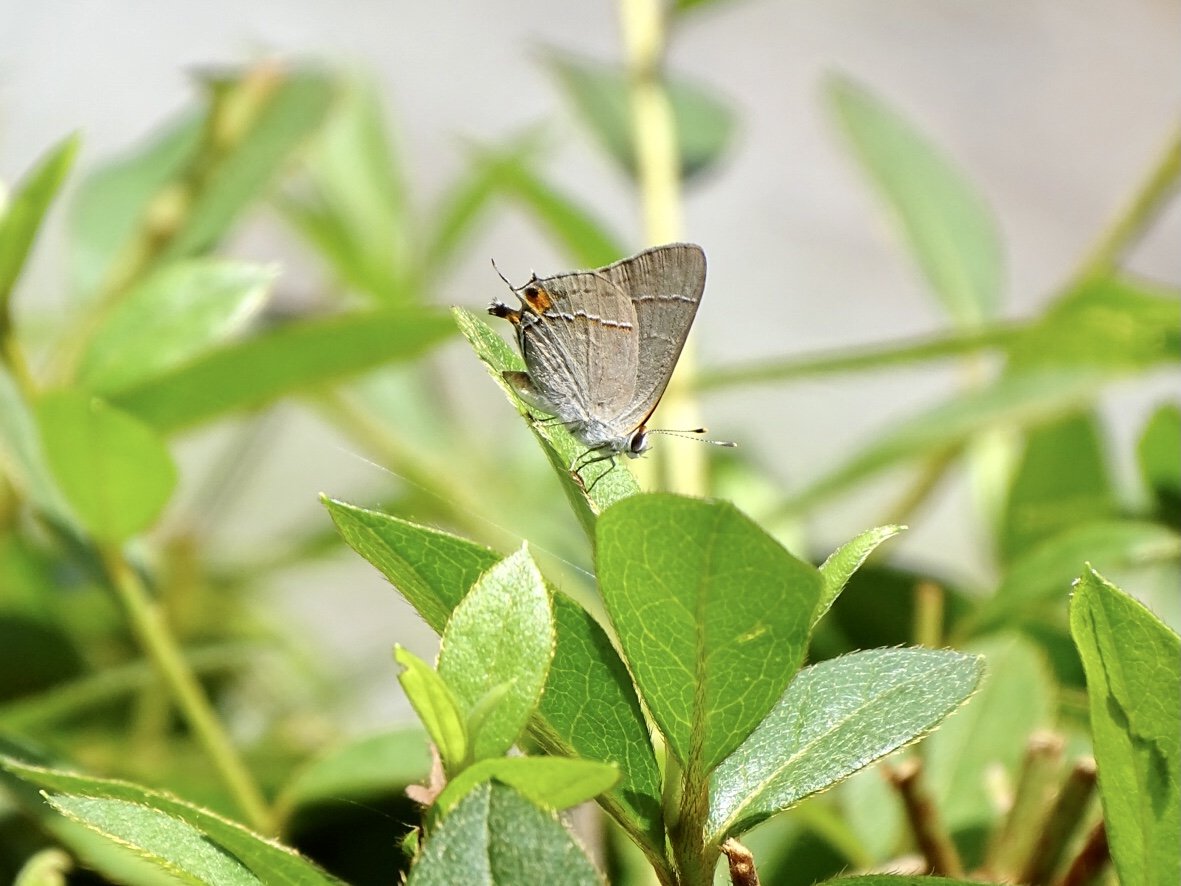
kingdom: Animalia
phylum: Arthropoda
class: Insecta
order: Lepidoptera
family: Lycaenidae
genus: Strymon
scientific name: Strymon melinus
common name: Gray Hairstreak
